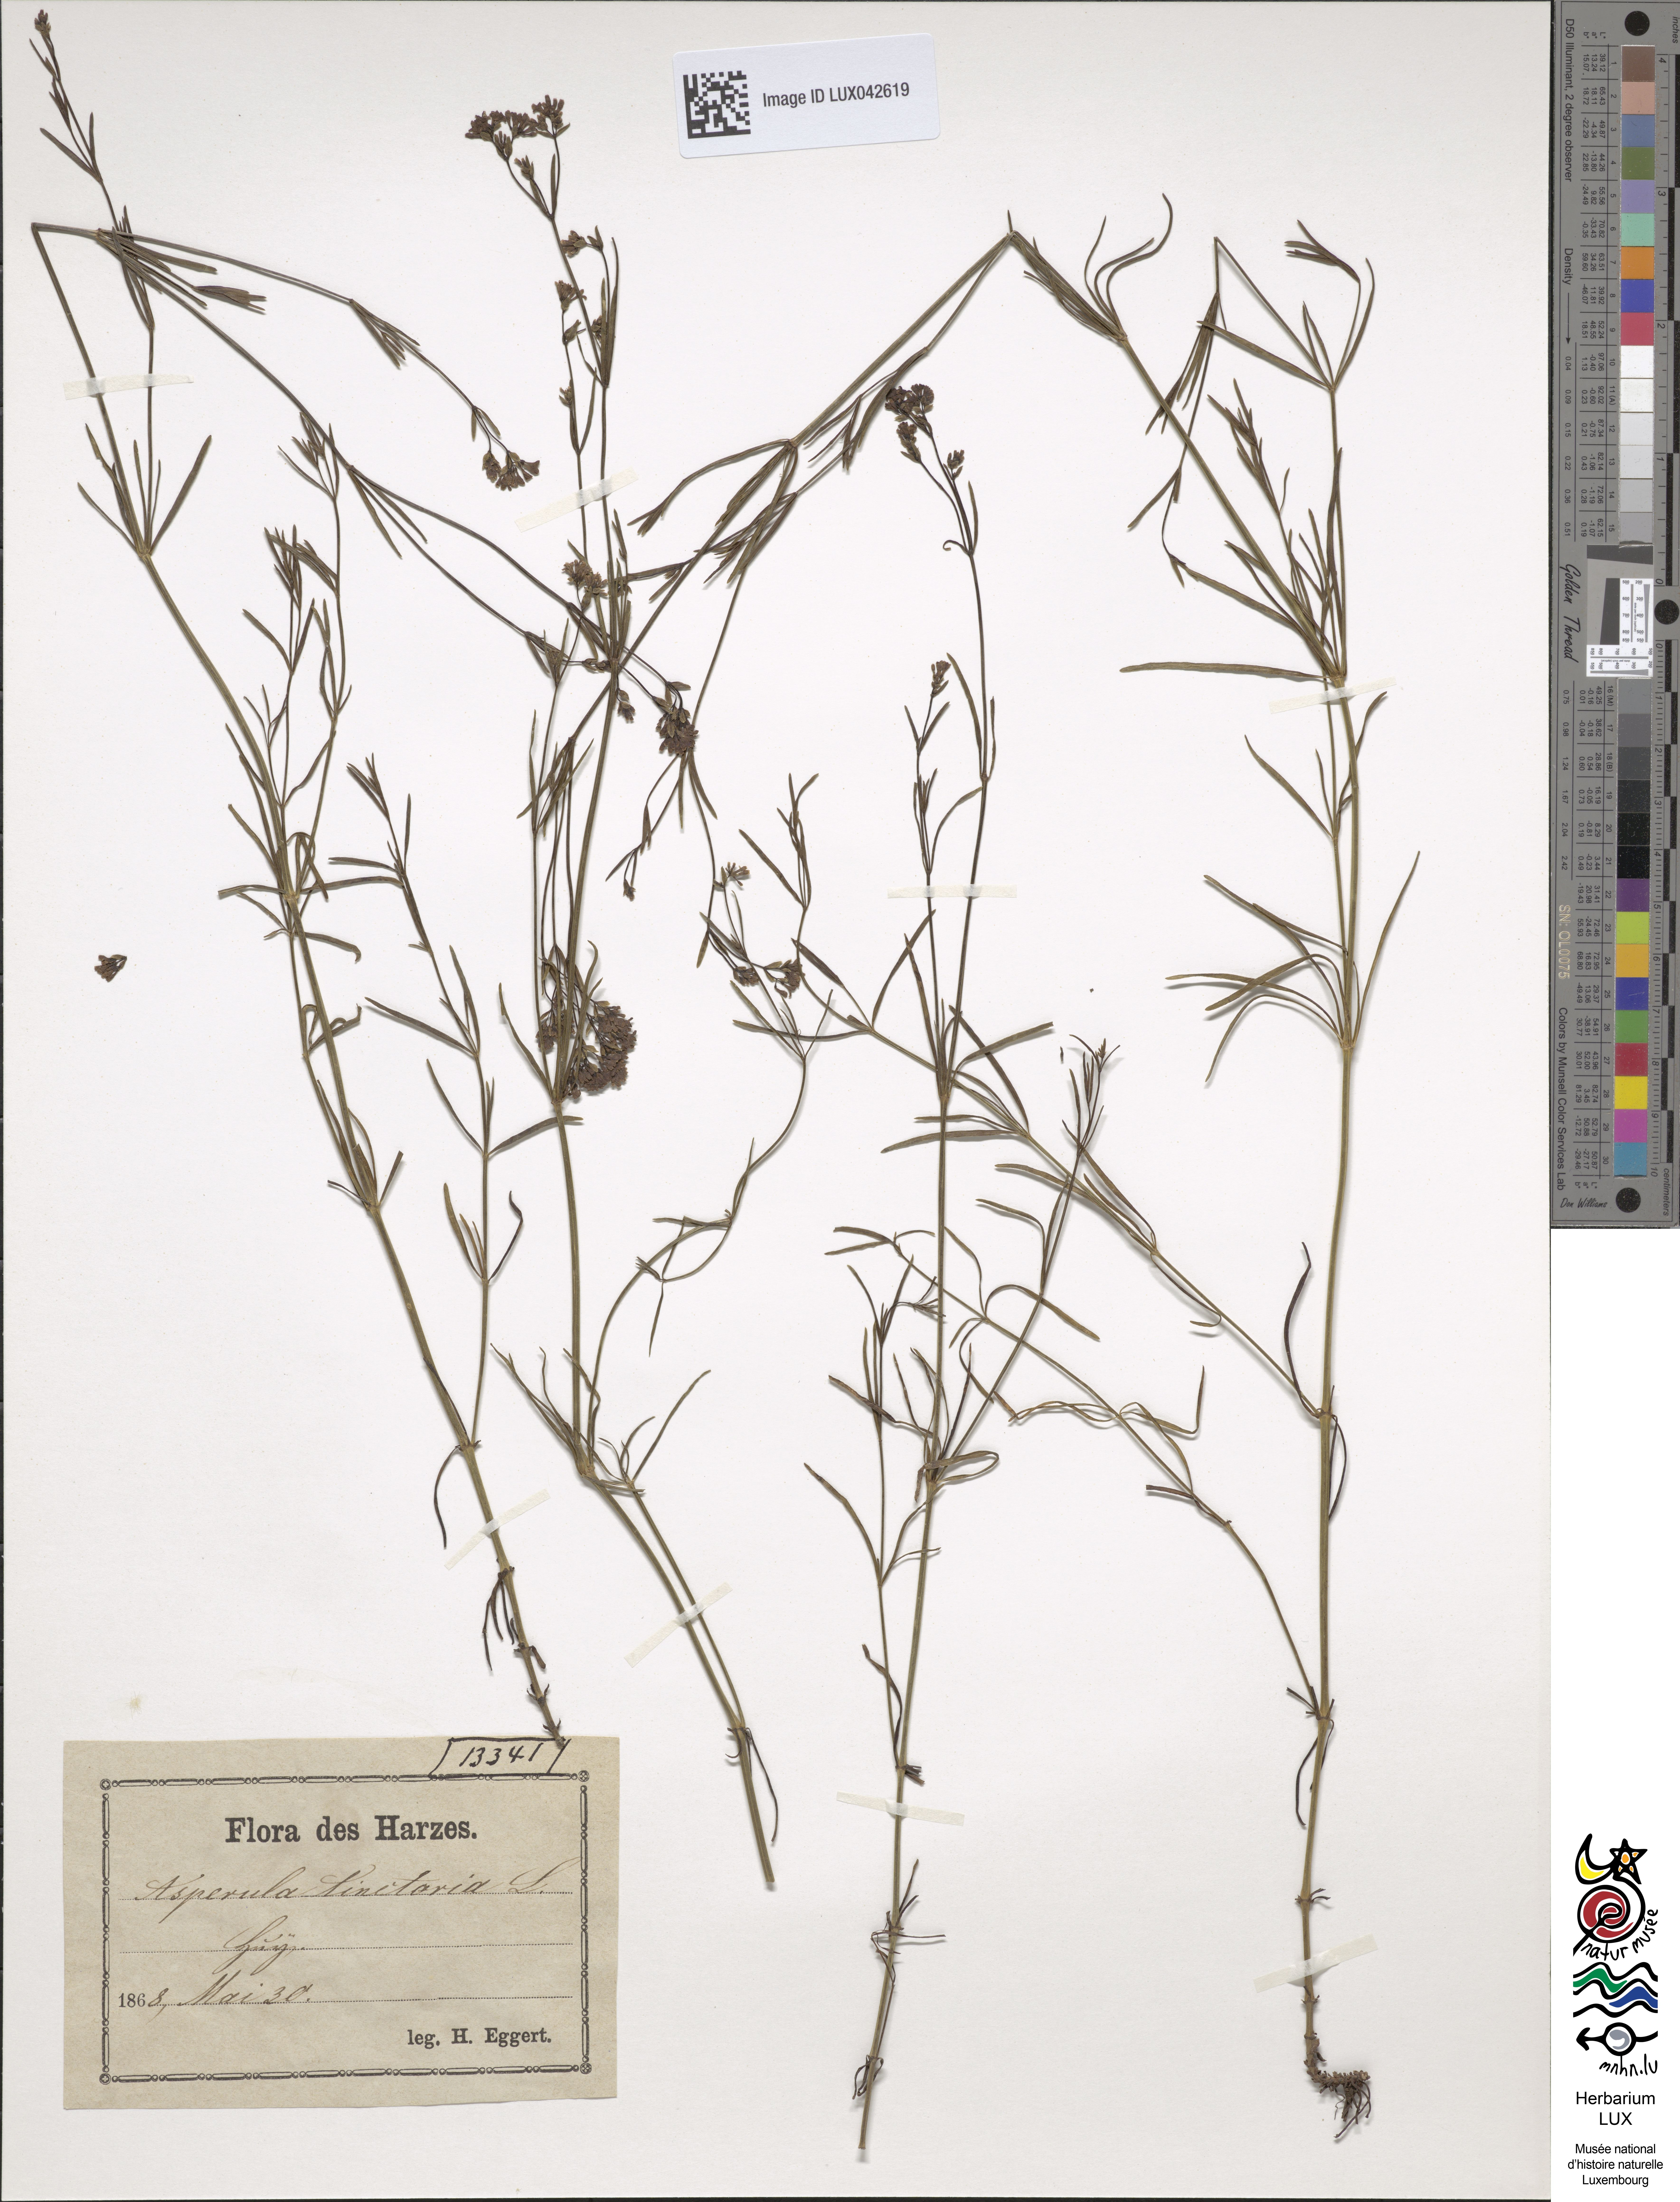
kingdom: Plantae
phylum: Tracheophyta
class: Magnoliopsida
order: Gentianales
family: Rubiaceae
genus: Asperula
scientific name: Asperula tinctoria
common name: Dyer's woodruff
